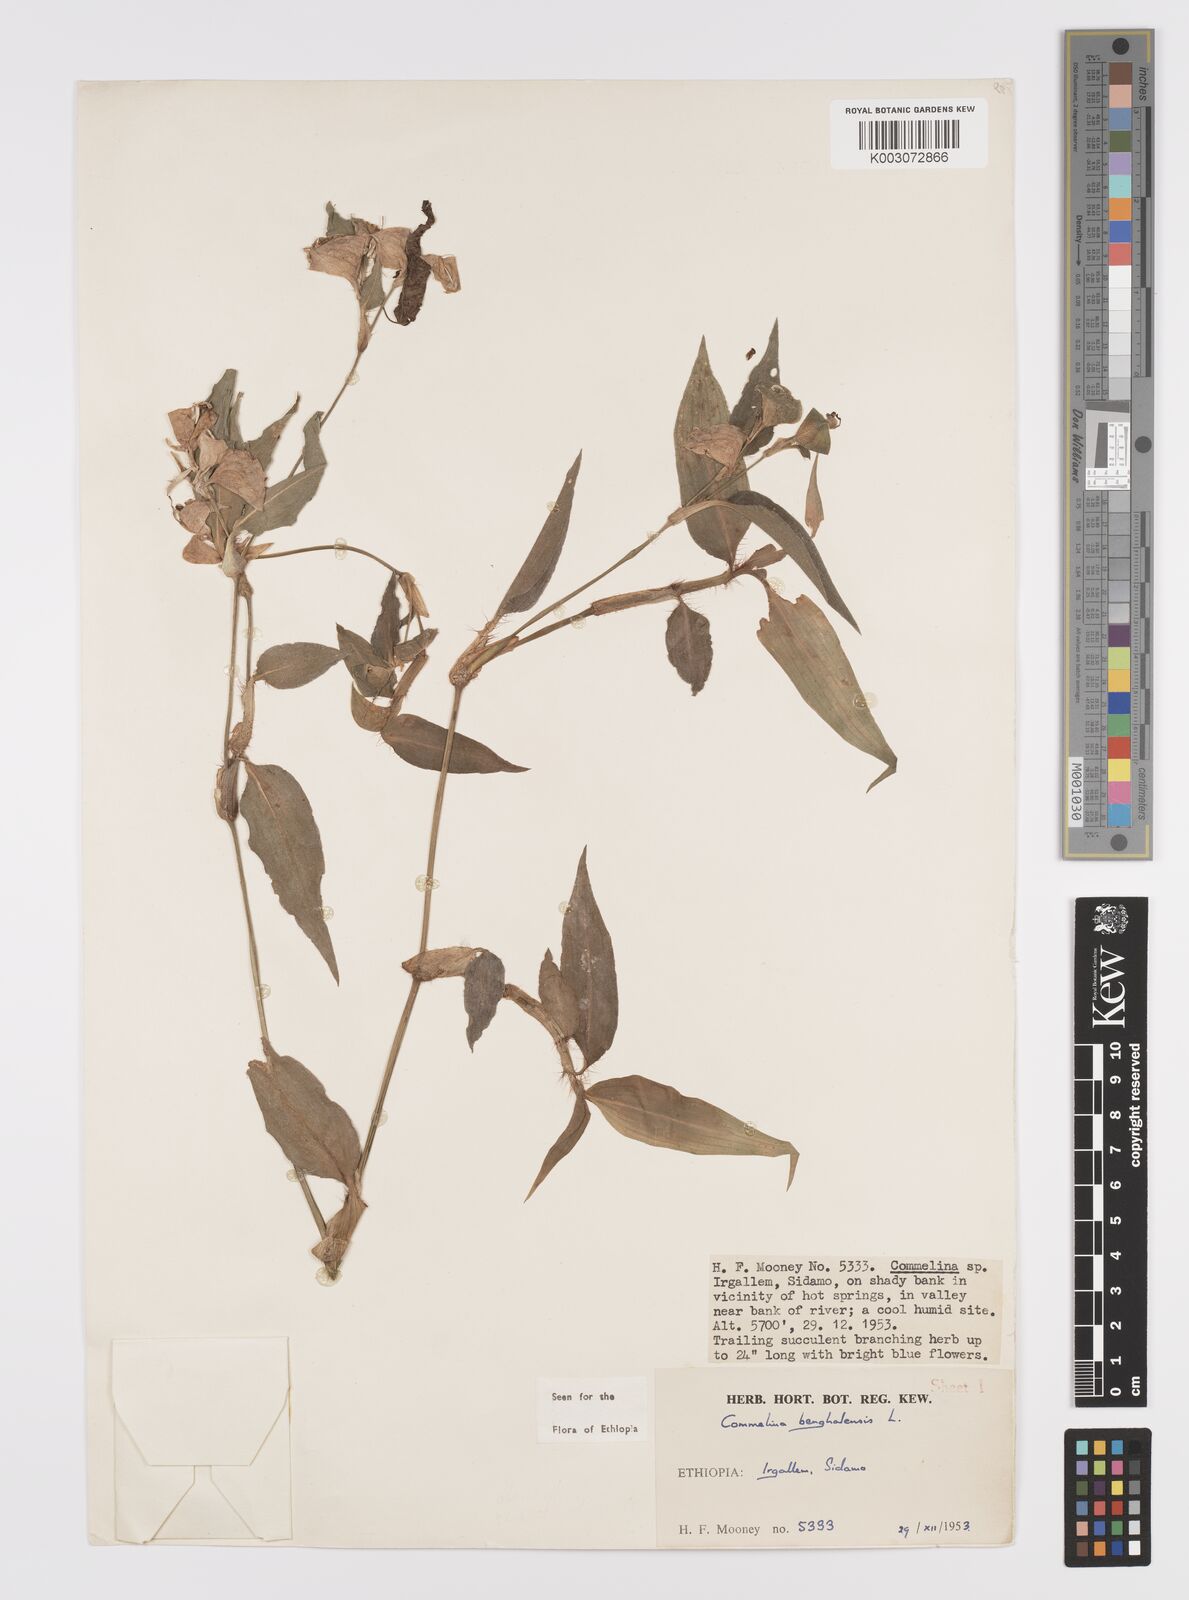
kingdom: Plantae
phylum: Tracheophyta
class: Liliopsida
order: Commelinales
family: Commelinaceae
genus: Commelina
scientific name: Commelina benghalensis
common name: Jio
